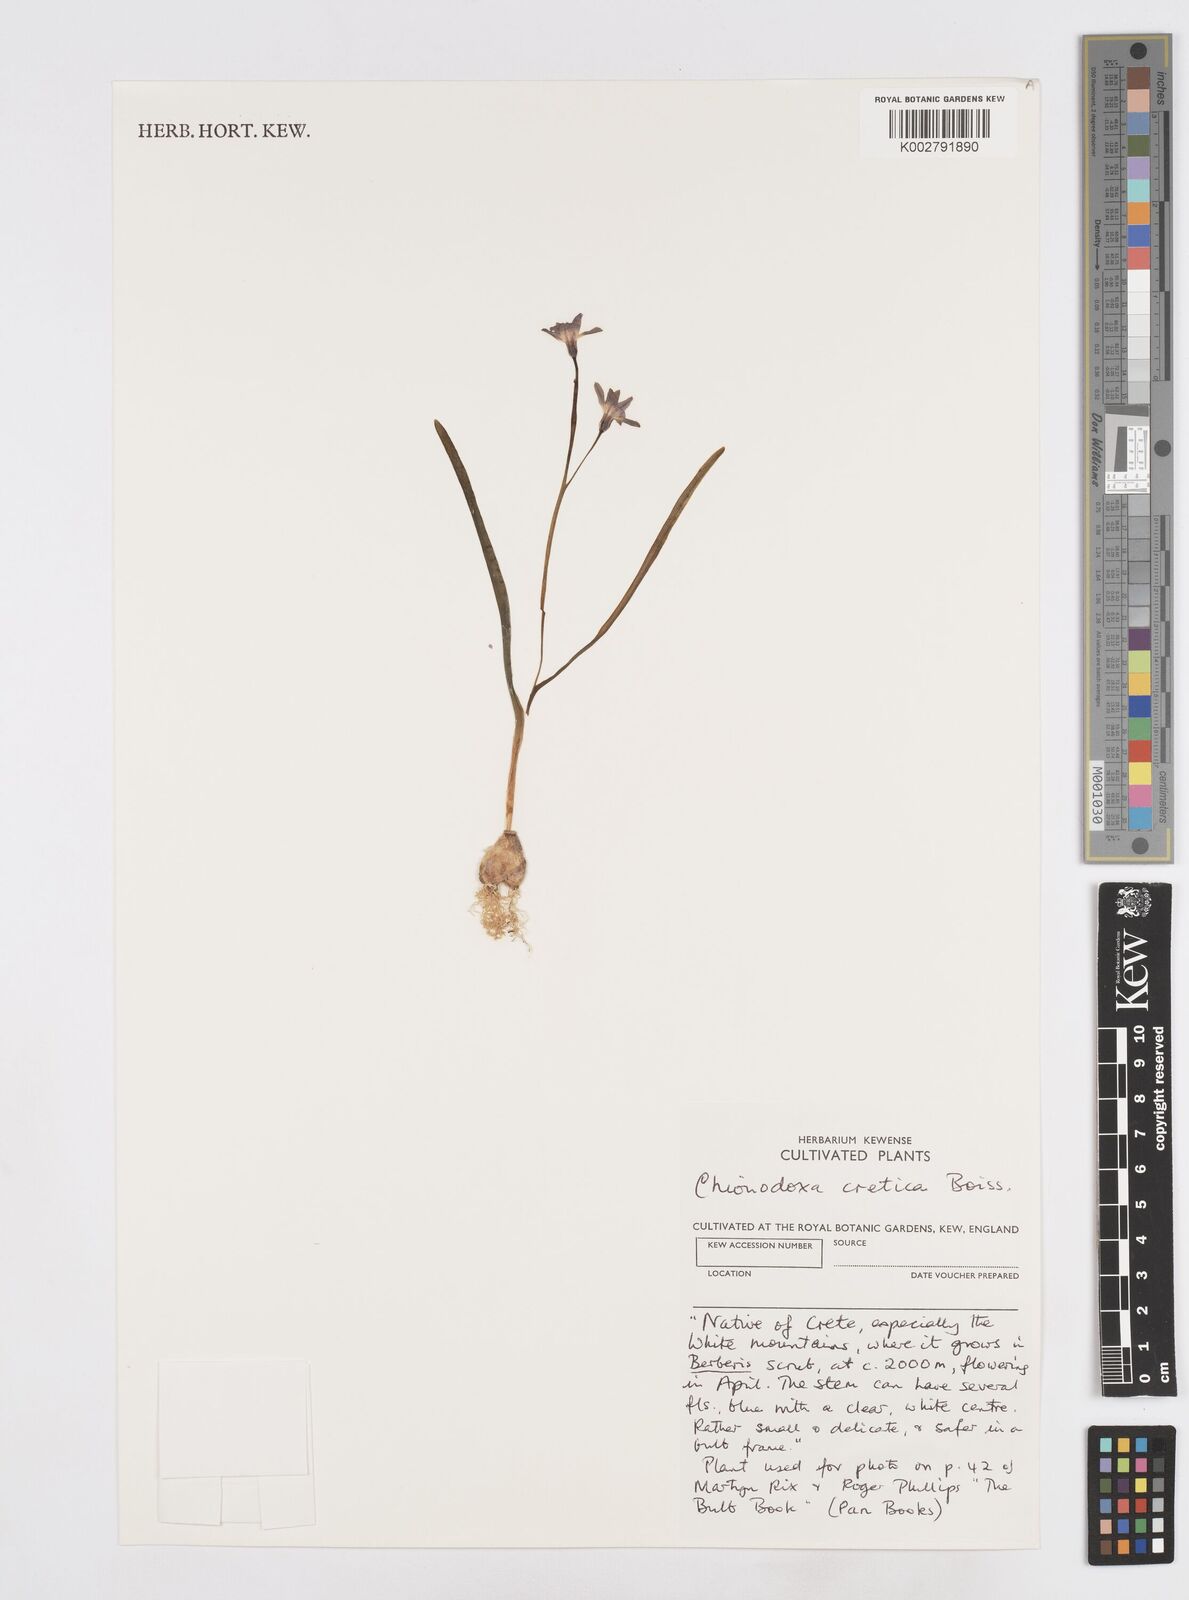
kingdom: Plantae
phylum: Tracheophyta
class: Liliopsida
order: Asparagales
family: Asparagaceae
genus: Scilla
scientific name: Scilla cretica
